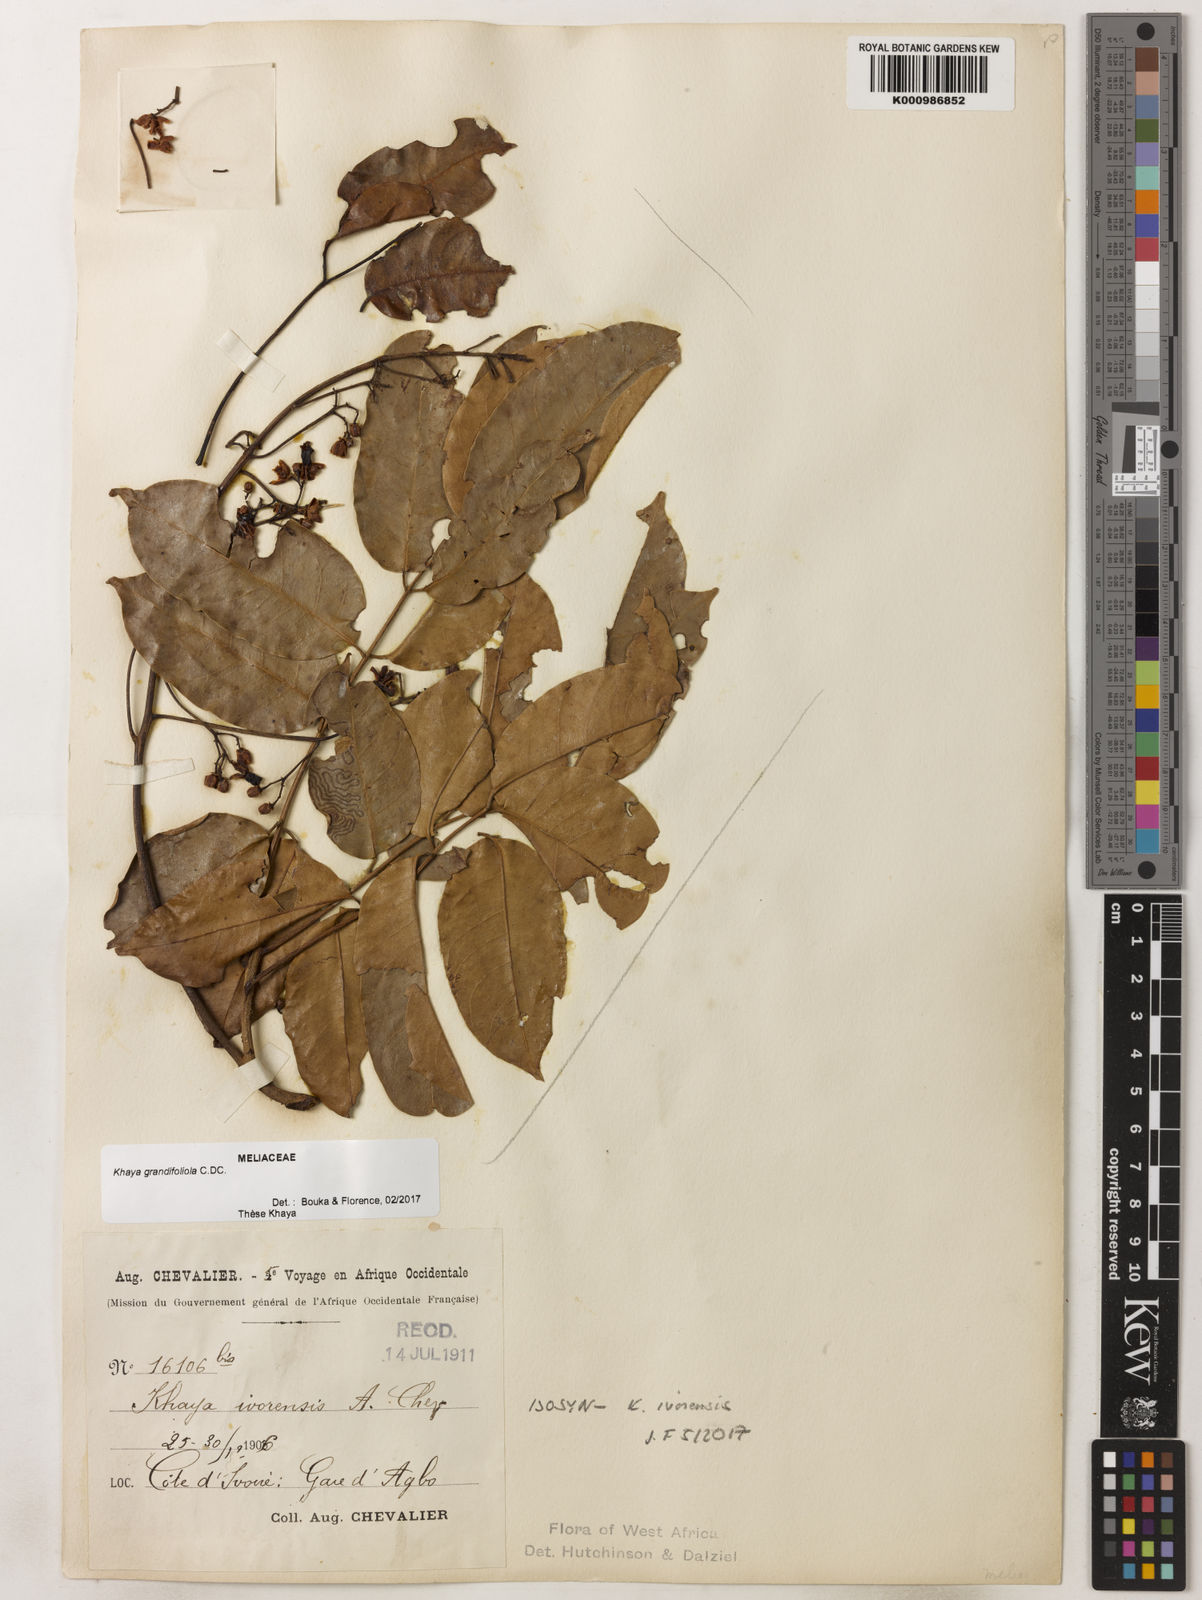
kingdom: Plantae
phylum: Tracheophyta
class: Magnoliopsida
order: Sapindales
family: Meliaceae
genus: Khaya
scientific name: Khaya
